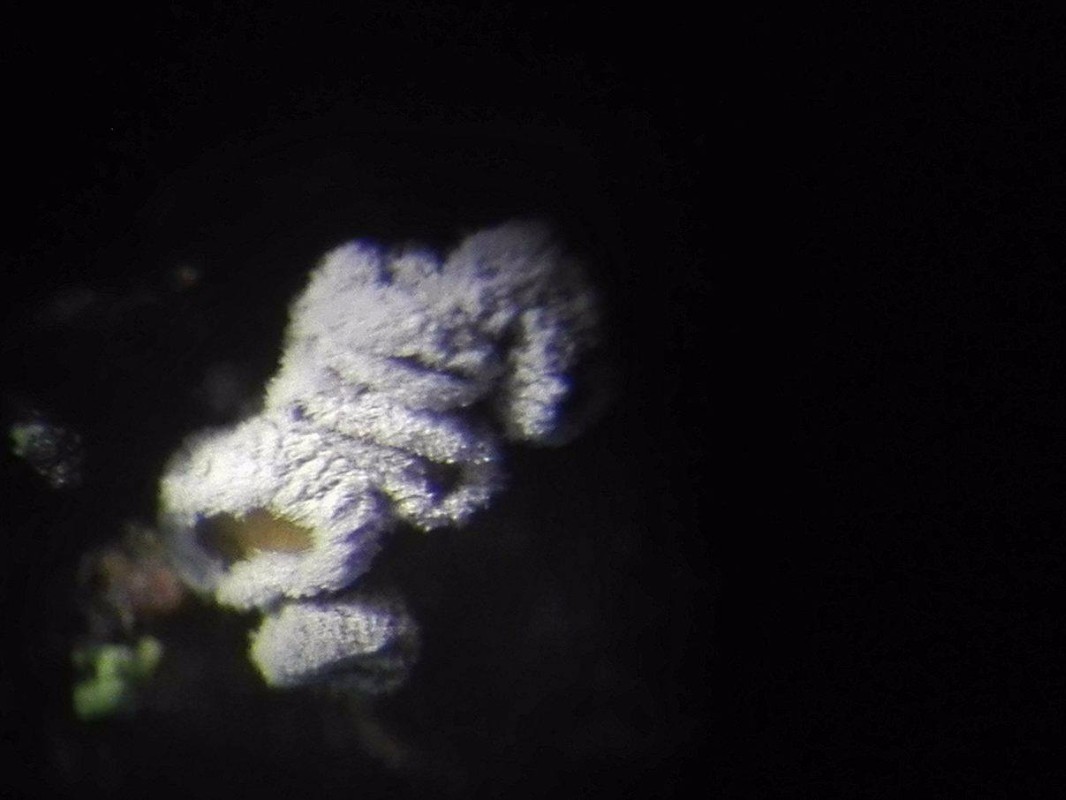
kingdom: Fungi
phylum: Ascomycota
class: Leotiomycetes
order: Helotiales
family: Lachnaceae
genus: Proliferodiscus
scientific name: Proliferodiscus pulveraceus
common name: askegrå frynseskive
